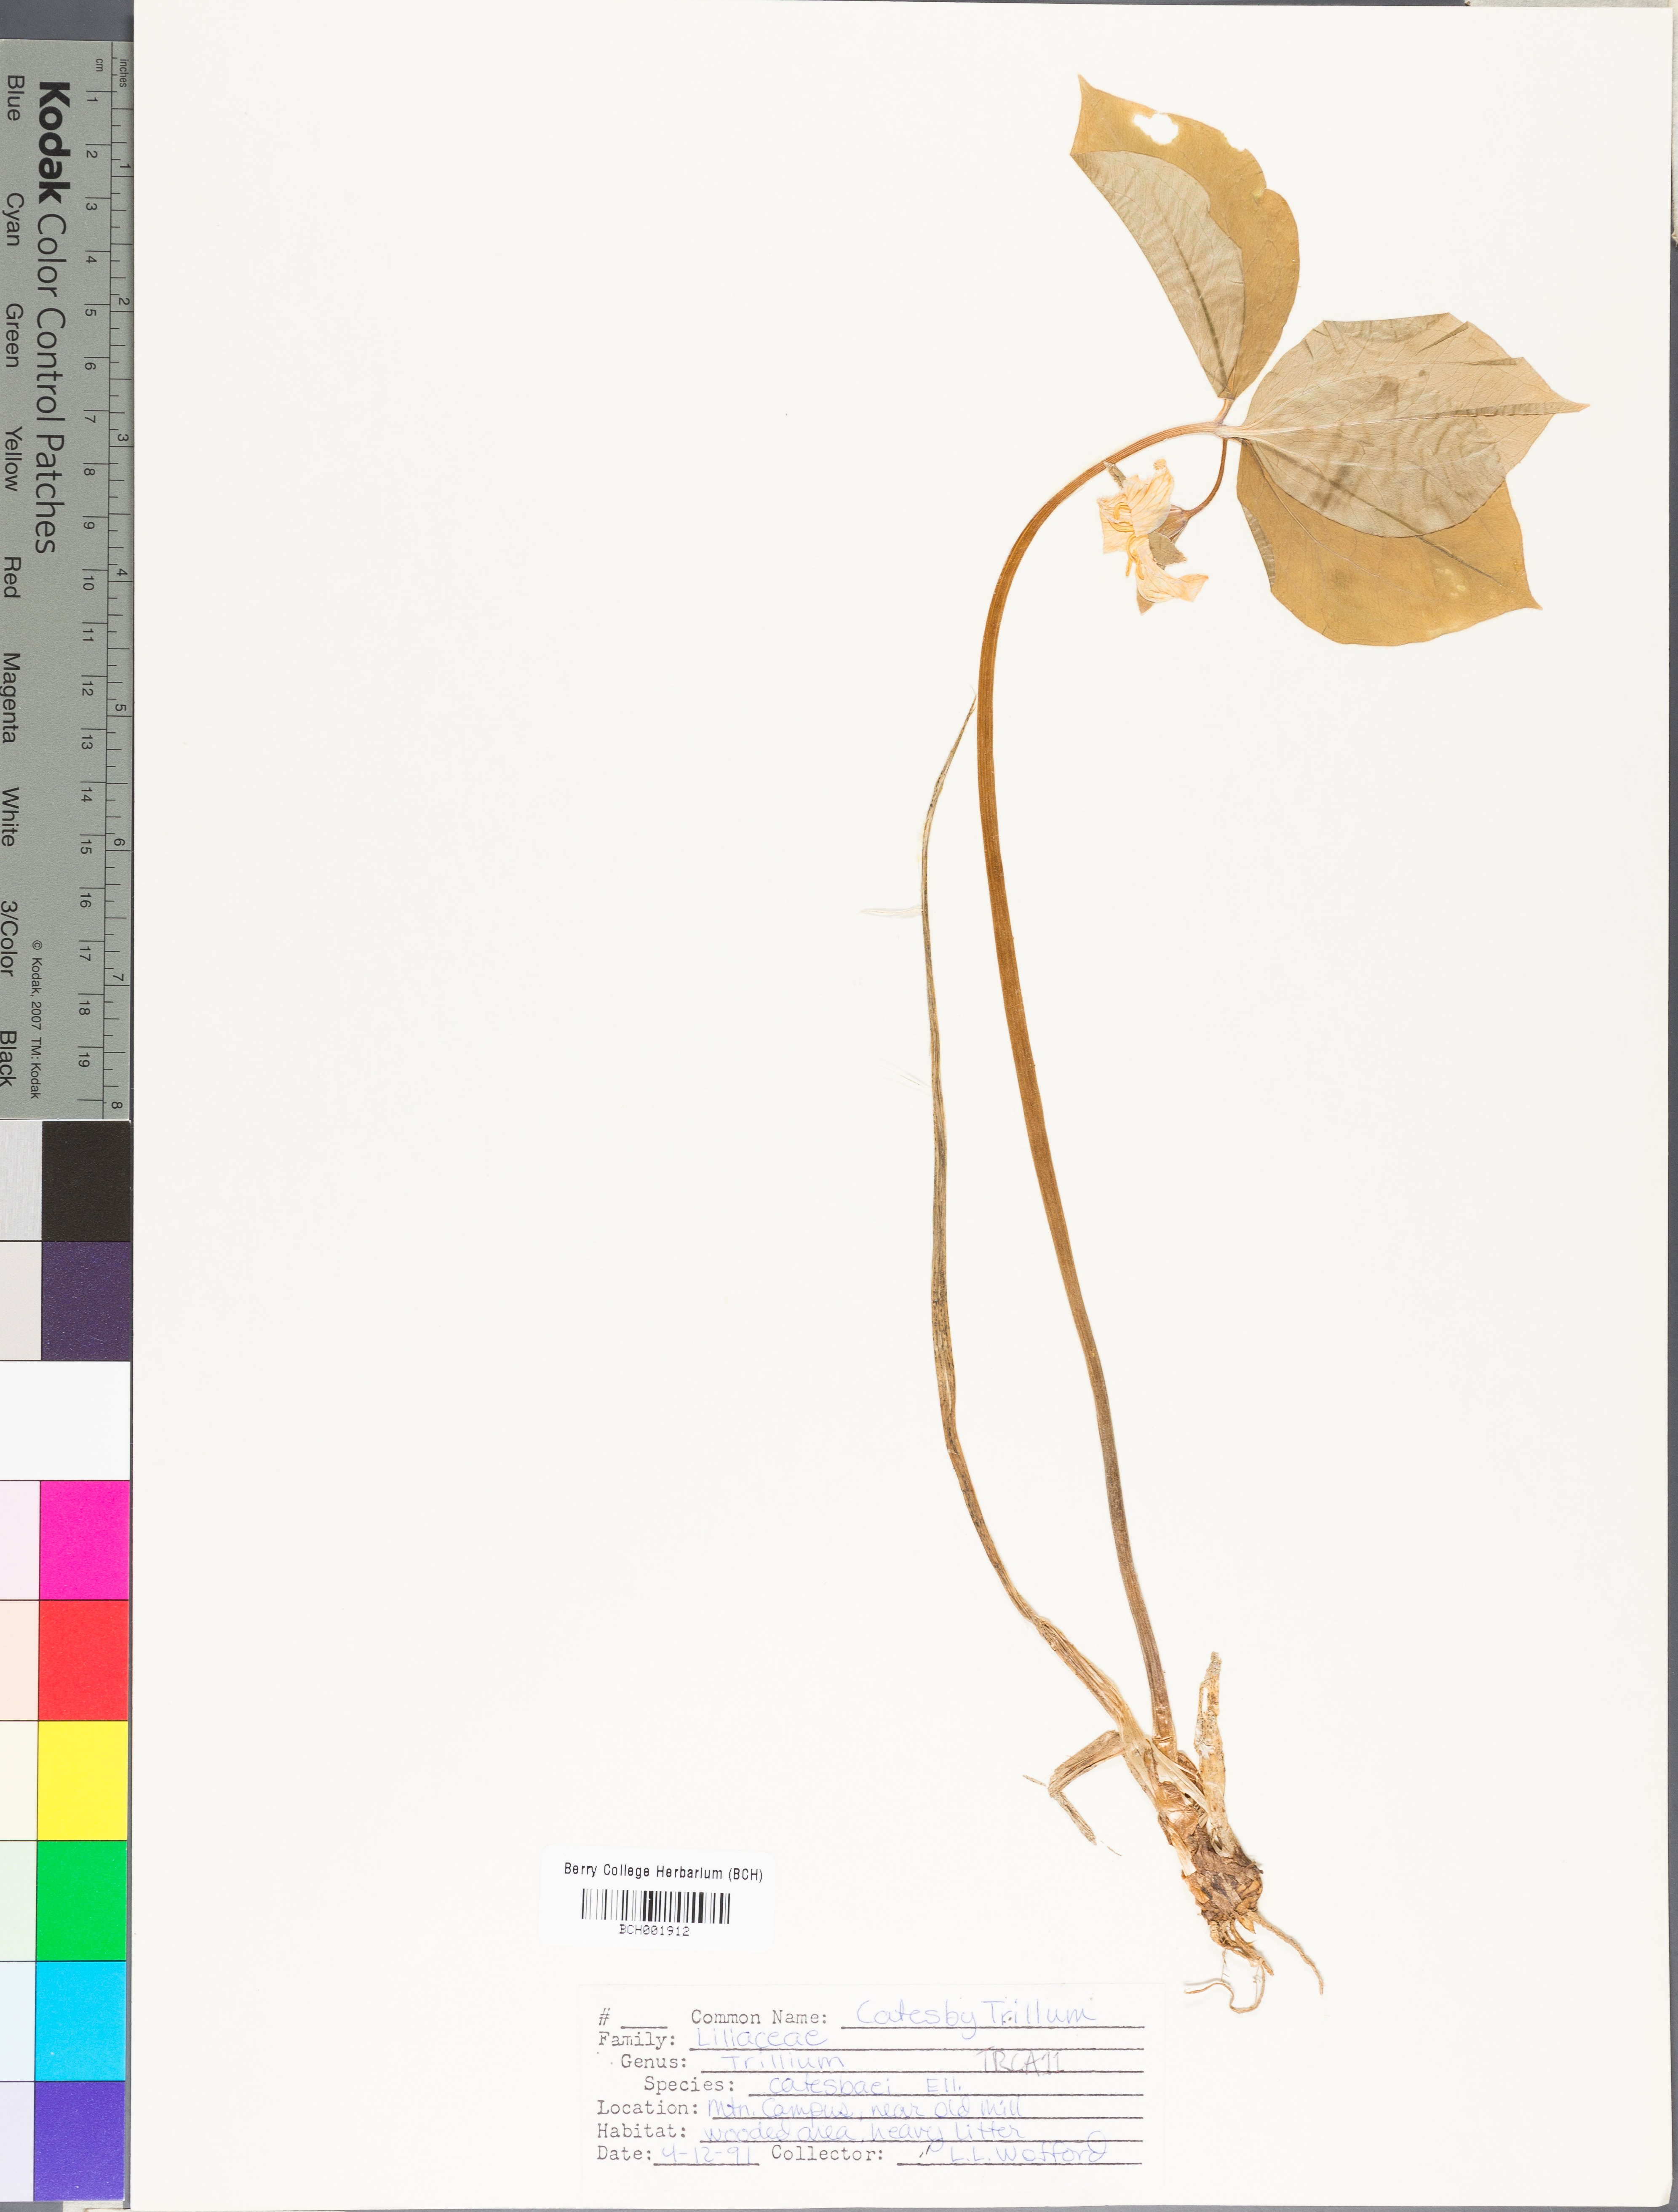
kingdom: Plantae
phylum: Tracheophyta
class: Liliopsida
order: Liliales
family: Melanthiaceae
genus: Trillium
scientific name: Trillium catesbaei
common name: Bashful trillium
